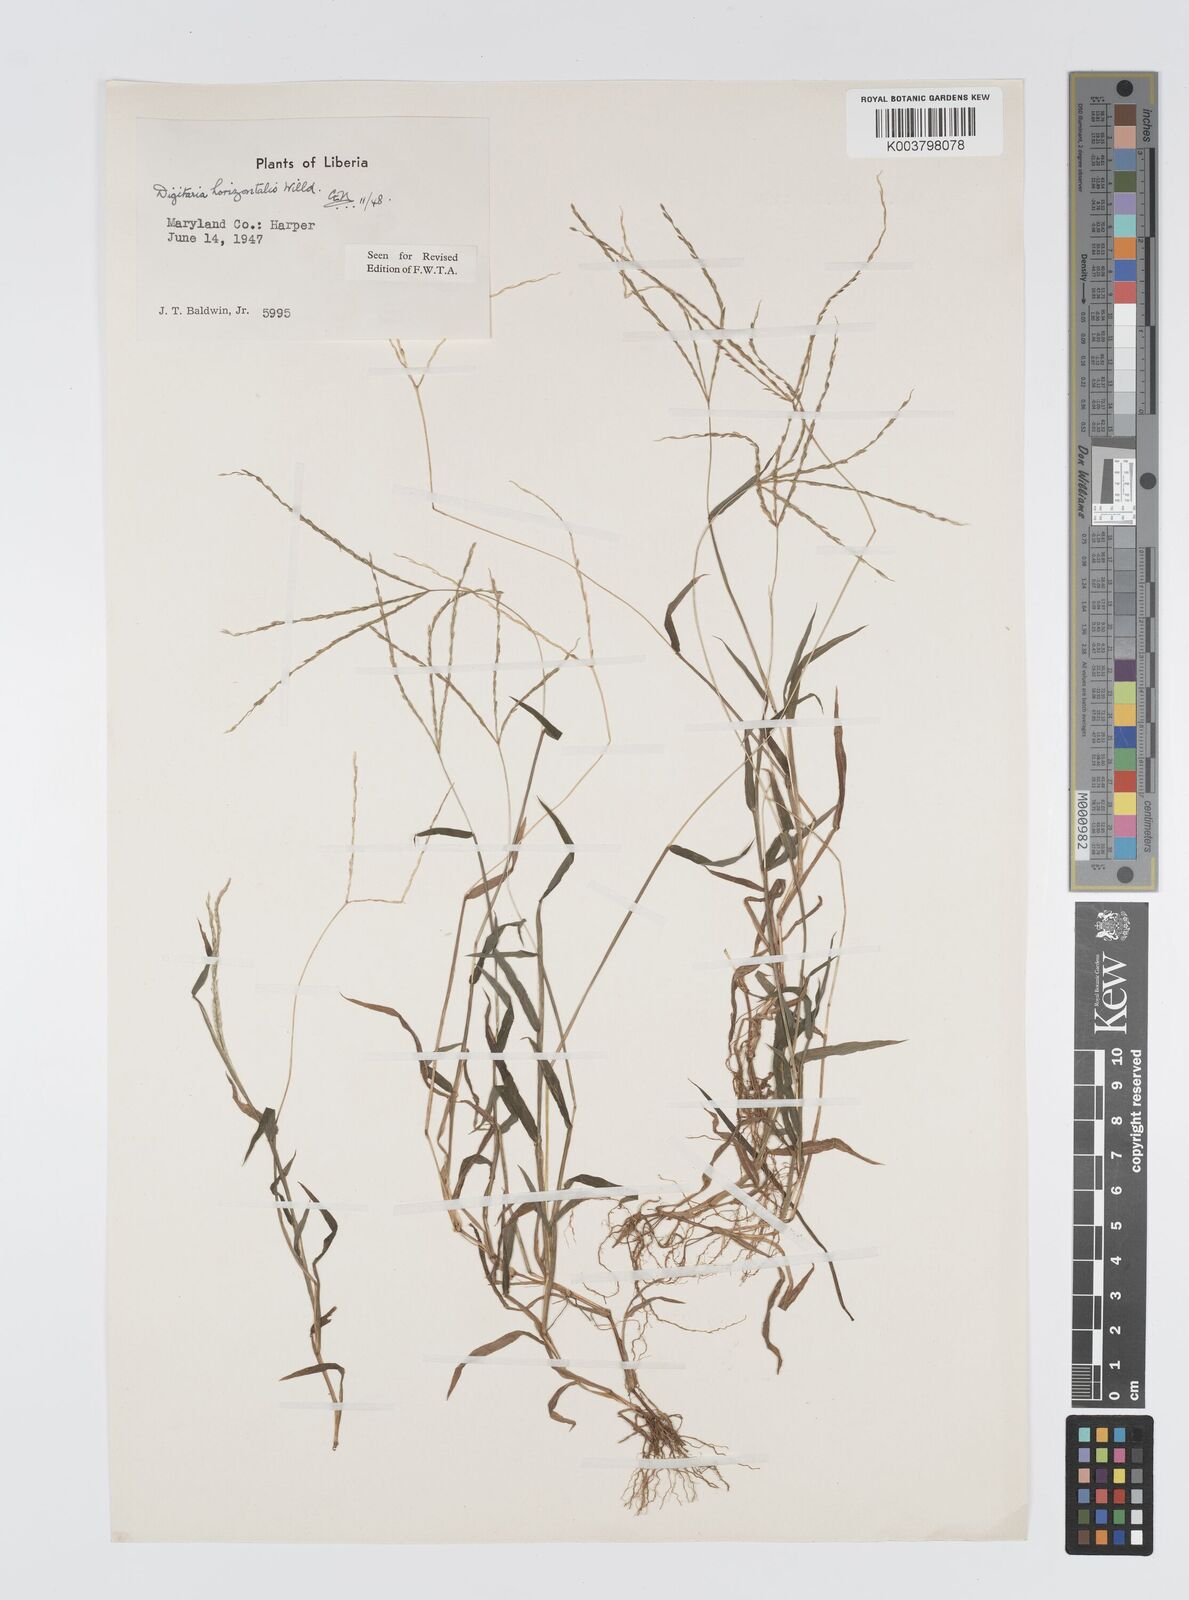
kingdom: Plantae
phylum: Tracheophyta
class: Liliopsida
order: Poales
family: Poaceae
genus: Digitaria
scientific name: Digitaria horizontalis
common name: Jamaican crabgrass
